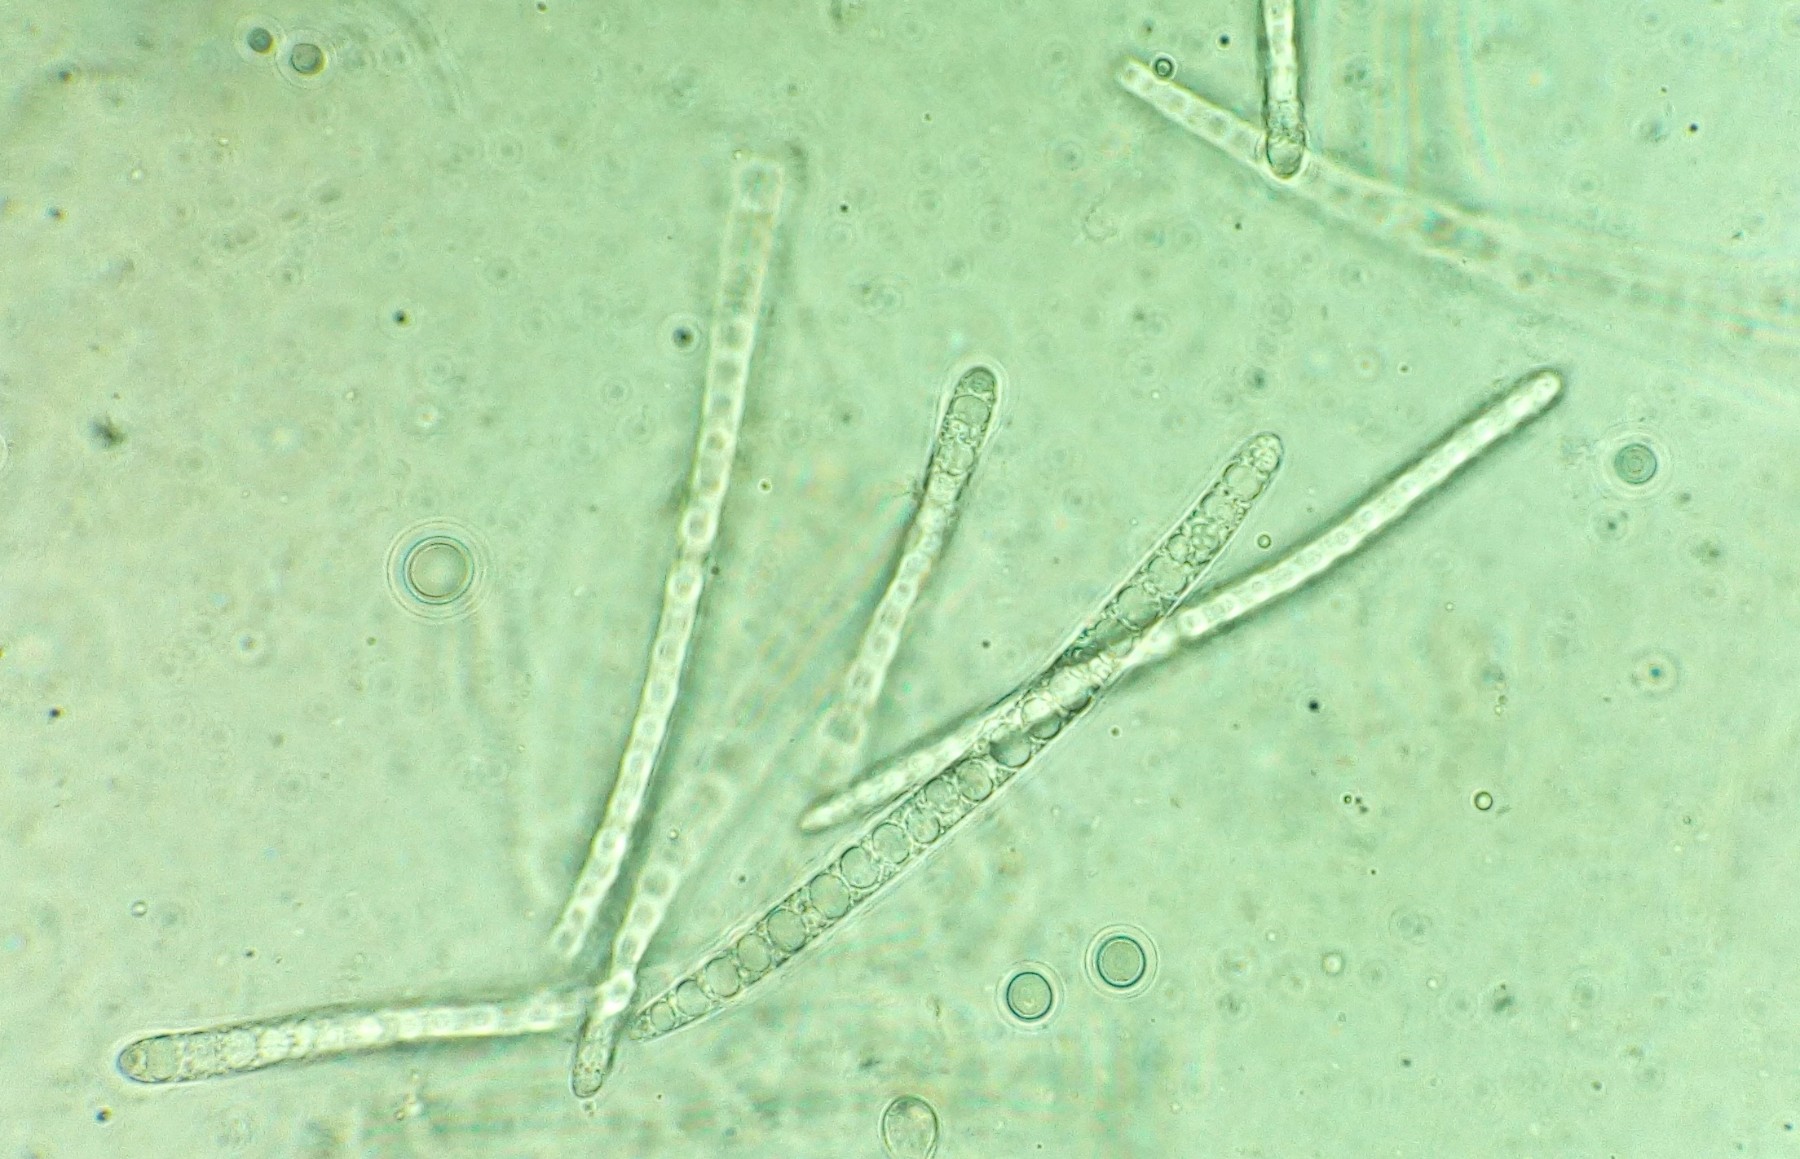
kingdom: Fungi
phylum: Ascomycota
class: Geoglossomycetes
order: Geoglossales
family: Geoglossaceae
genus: Geoglossum
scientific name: Geoglossum fallax
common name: småskællet jordtunge
